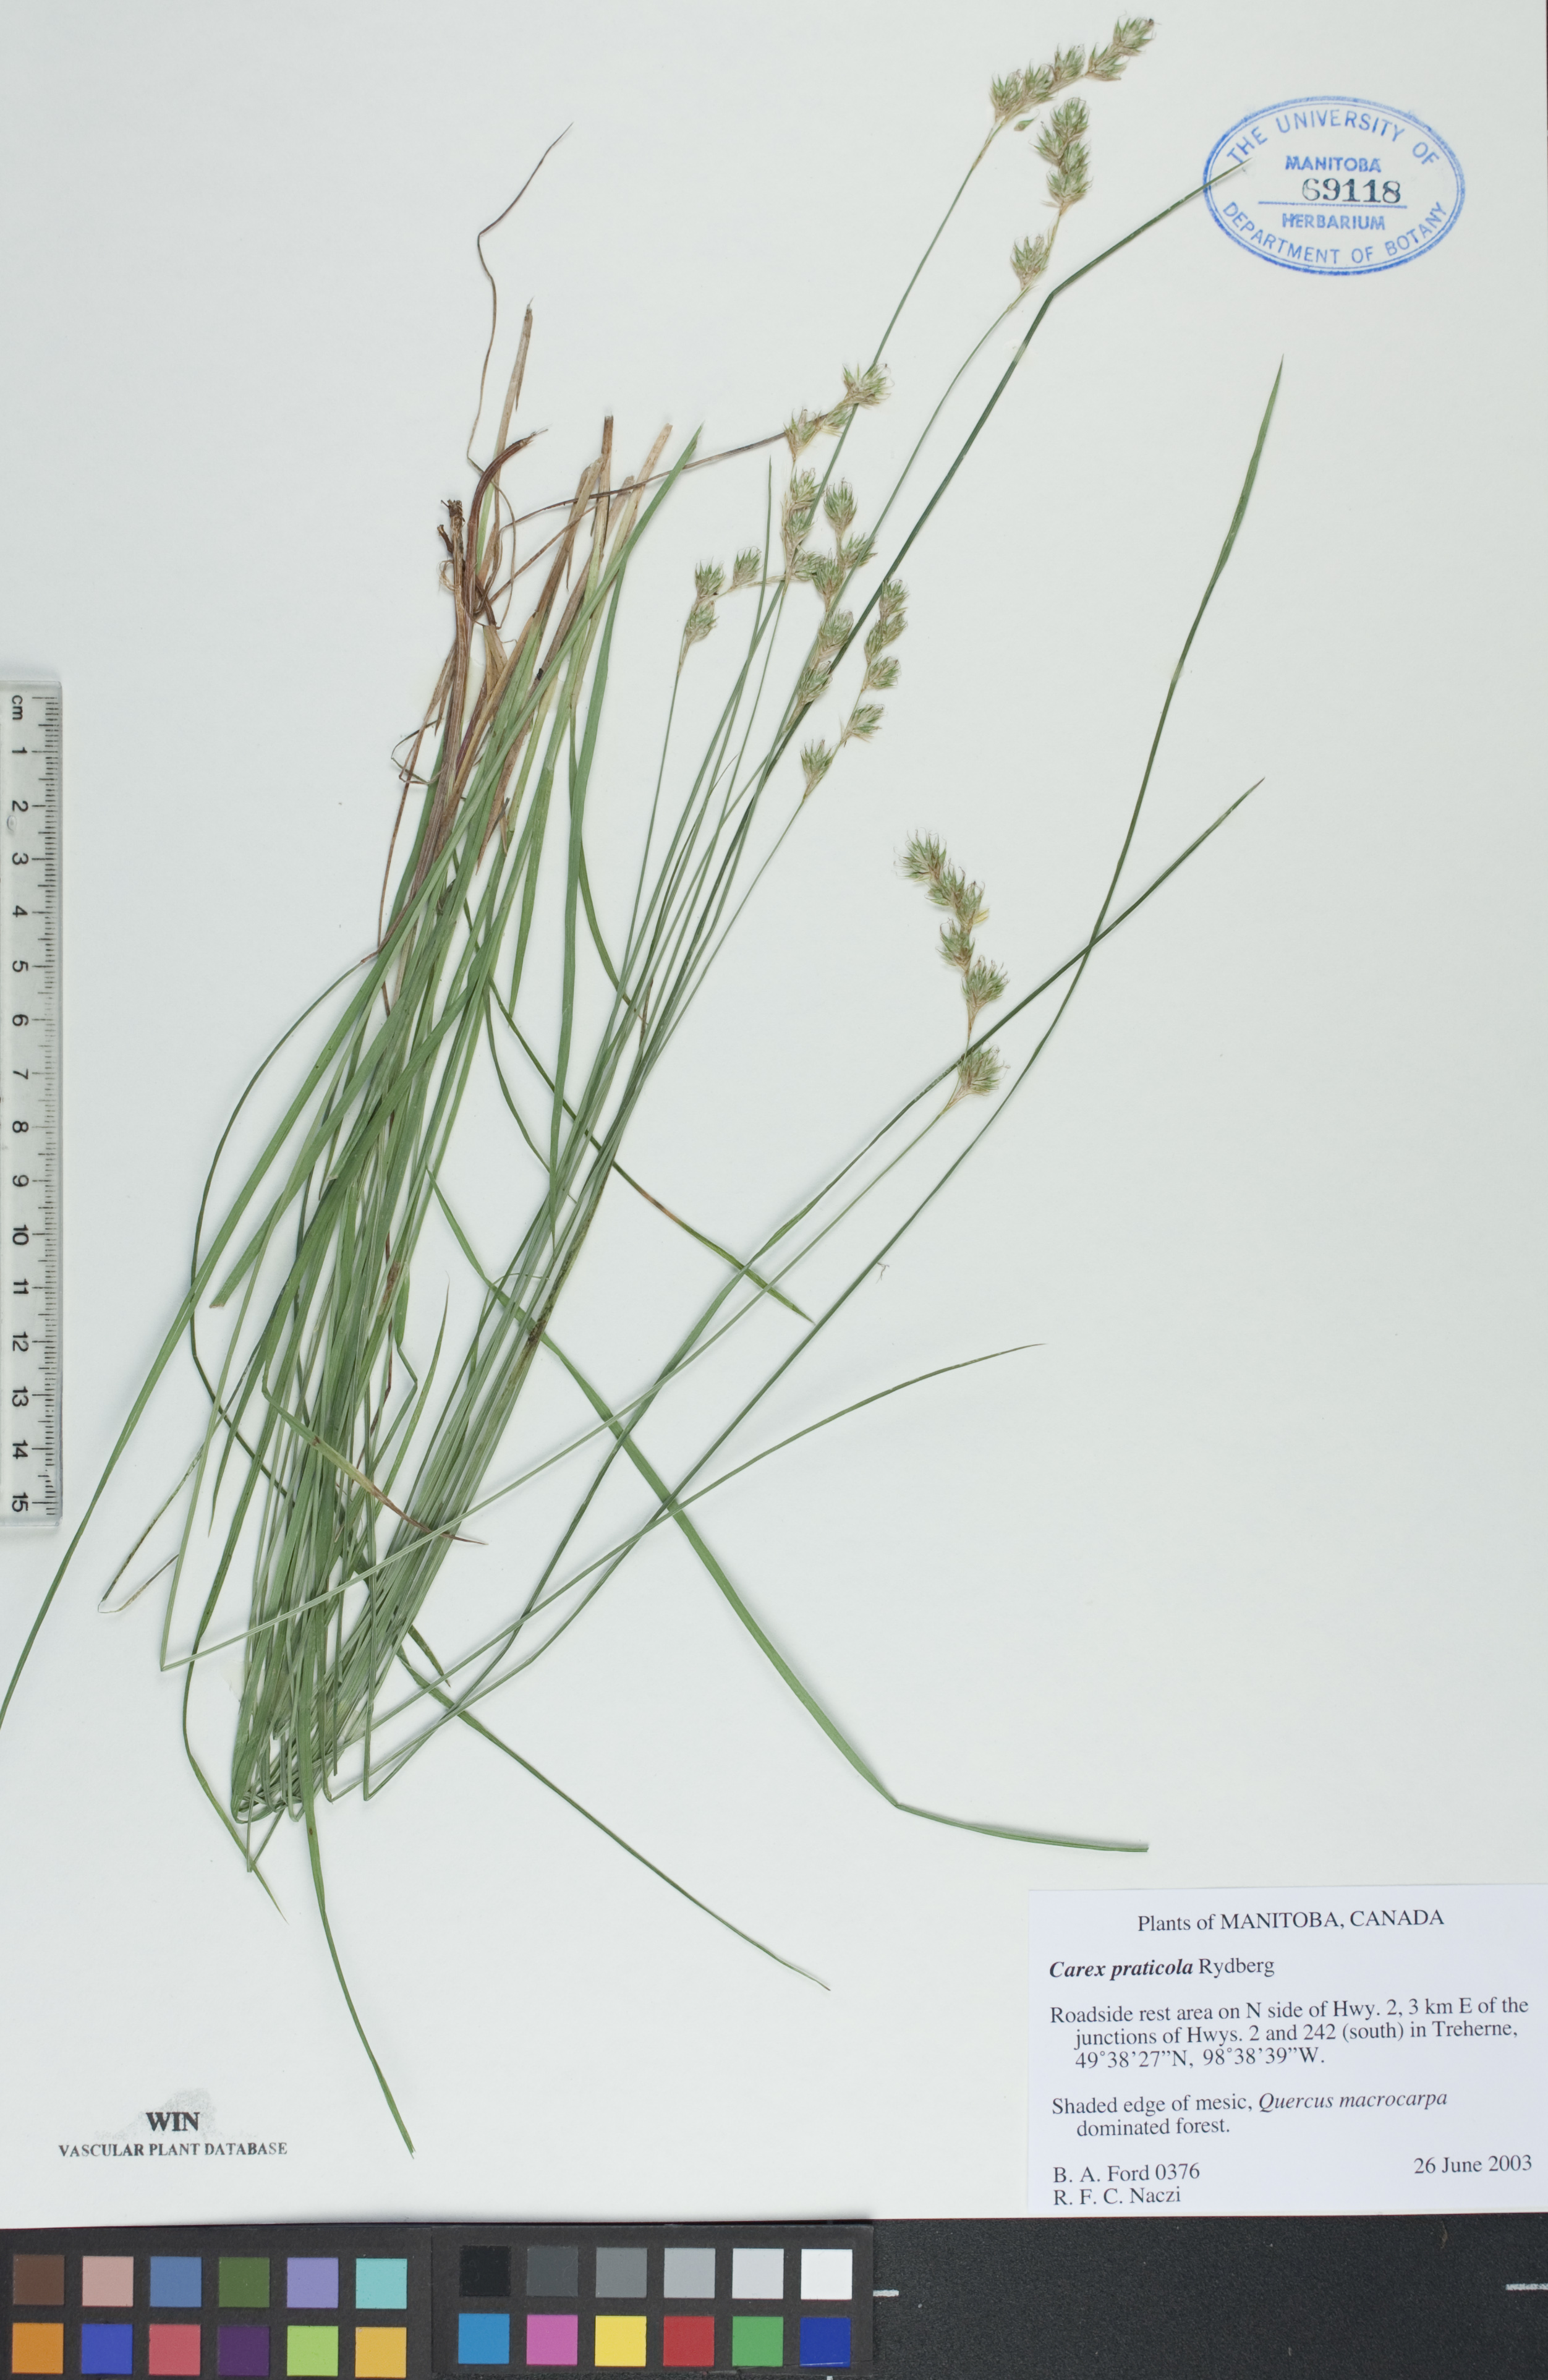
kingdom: Plantae
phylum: Tracheophyta
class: Liliopsida
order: Poales
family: Cyperaceae
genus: Carex
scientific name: Carex praticola
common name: Large-fruited oval sedge
